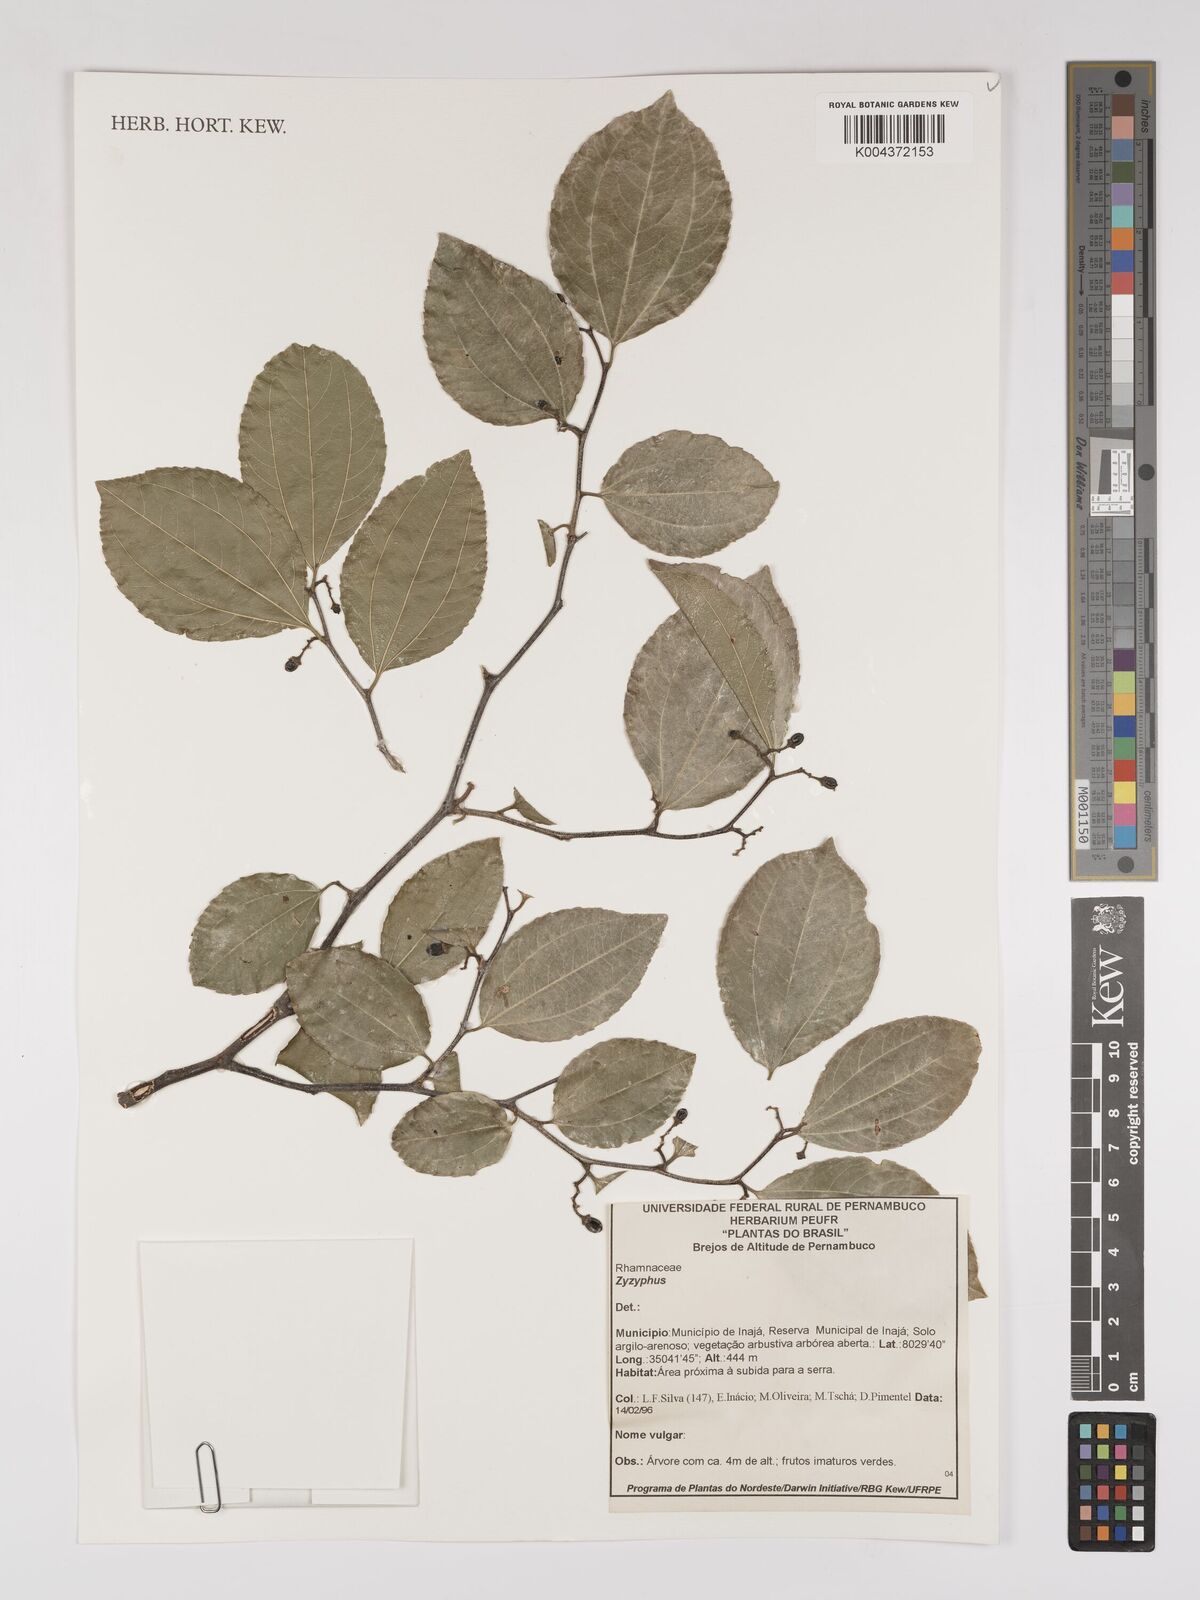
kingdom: Plantae
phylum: Tracheophyta
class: Magnoliopsida
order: Rosales
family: Rhamnaceae
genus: Ziziphus
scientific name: Ziziphus
